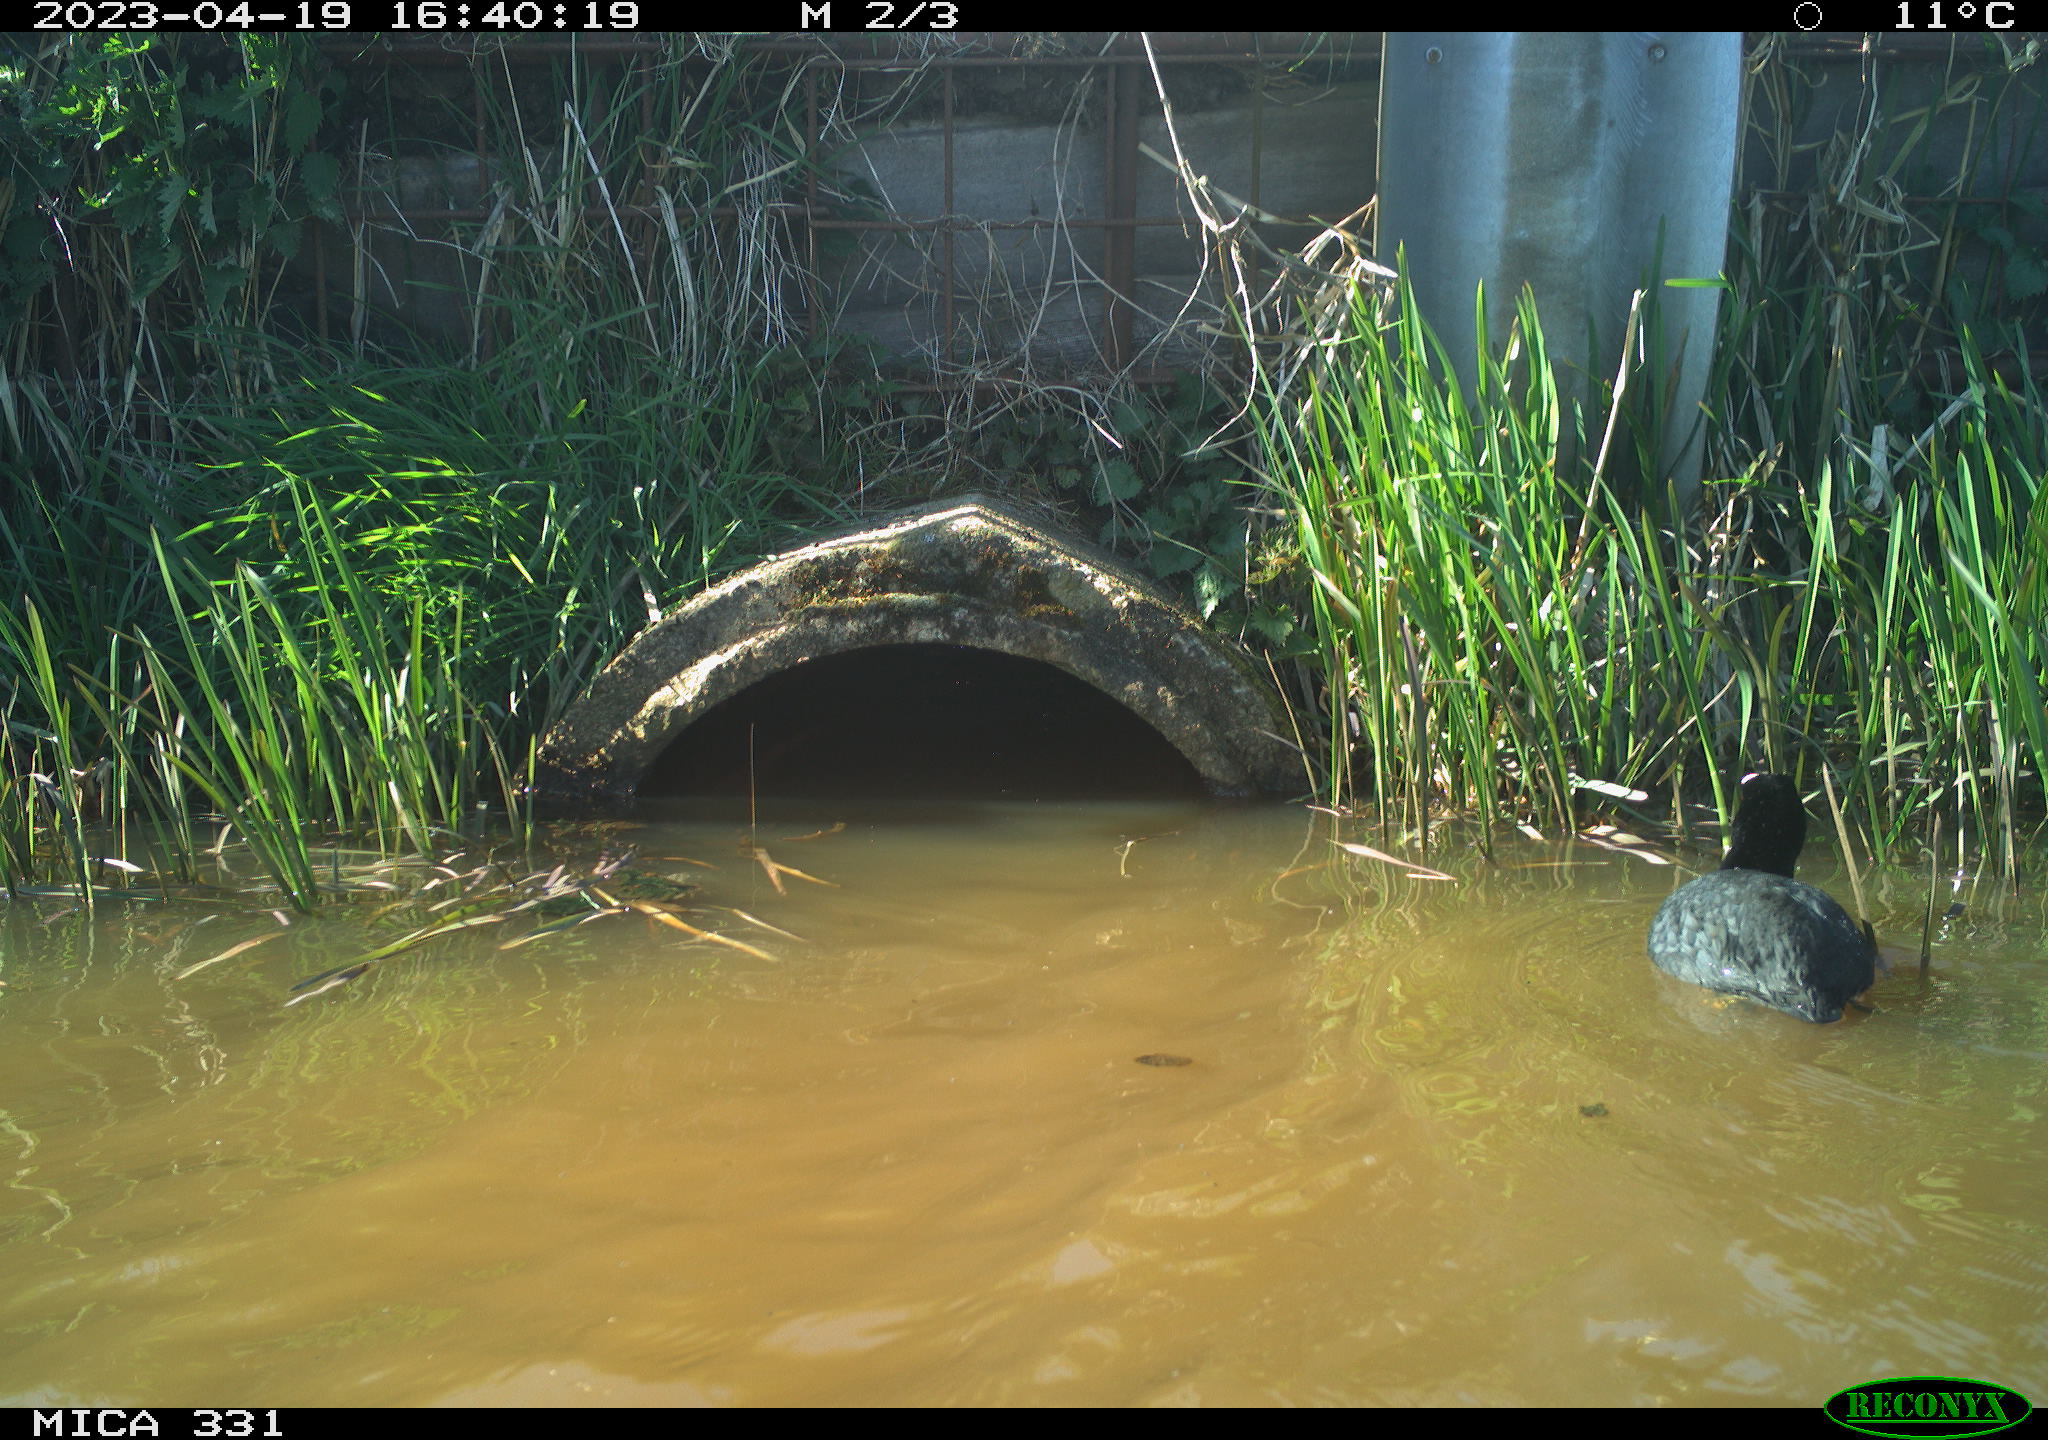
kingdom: Animalia
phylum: Chordata
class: Aves
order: Gruiformes
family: Rallidae
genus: Fulica
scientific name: Fulica atra
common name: Eurasian coot
